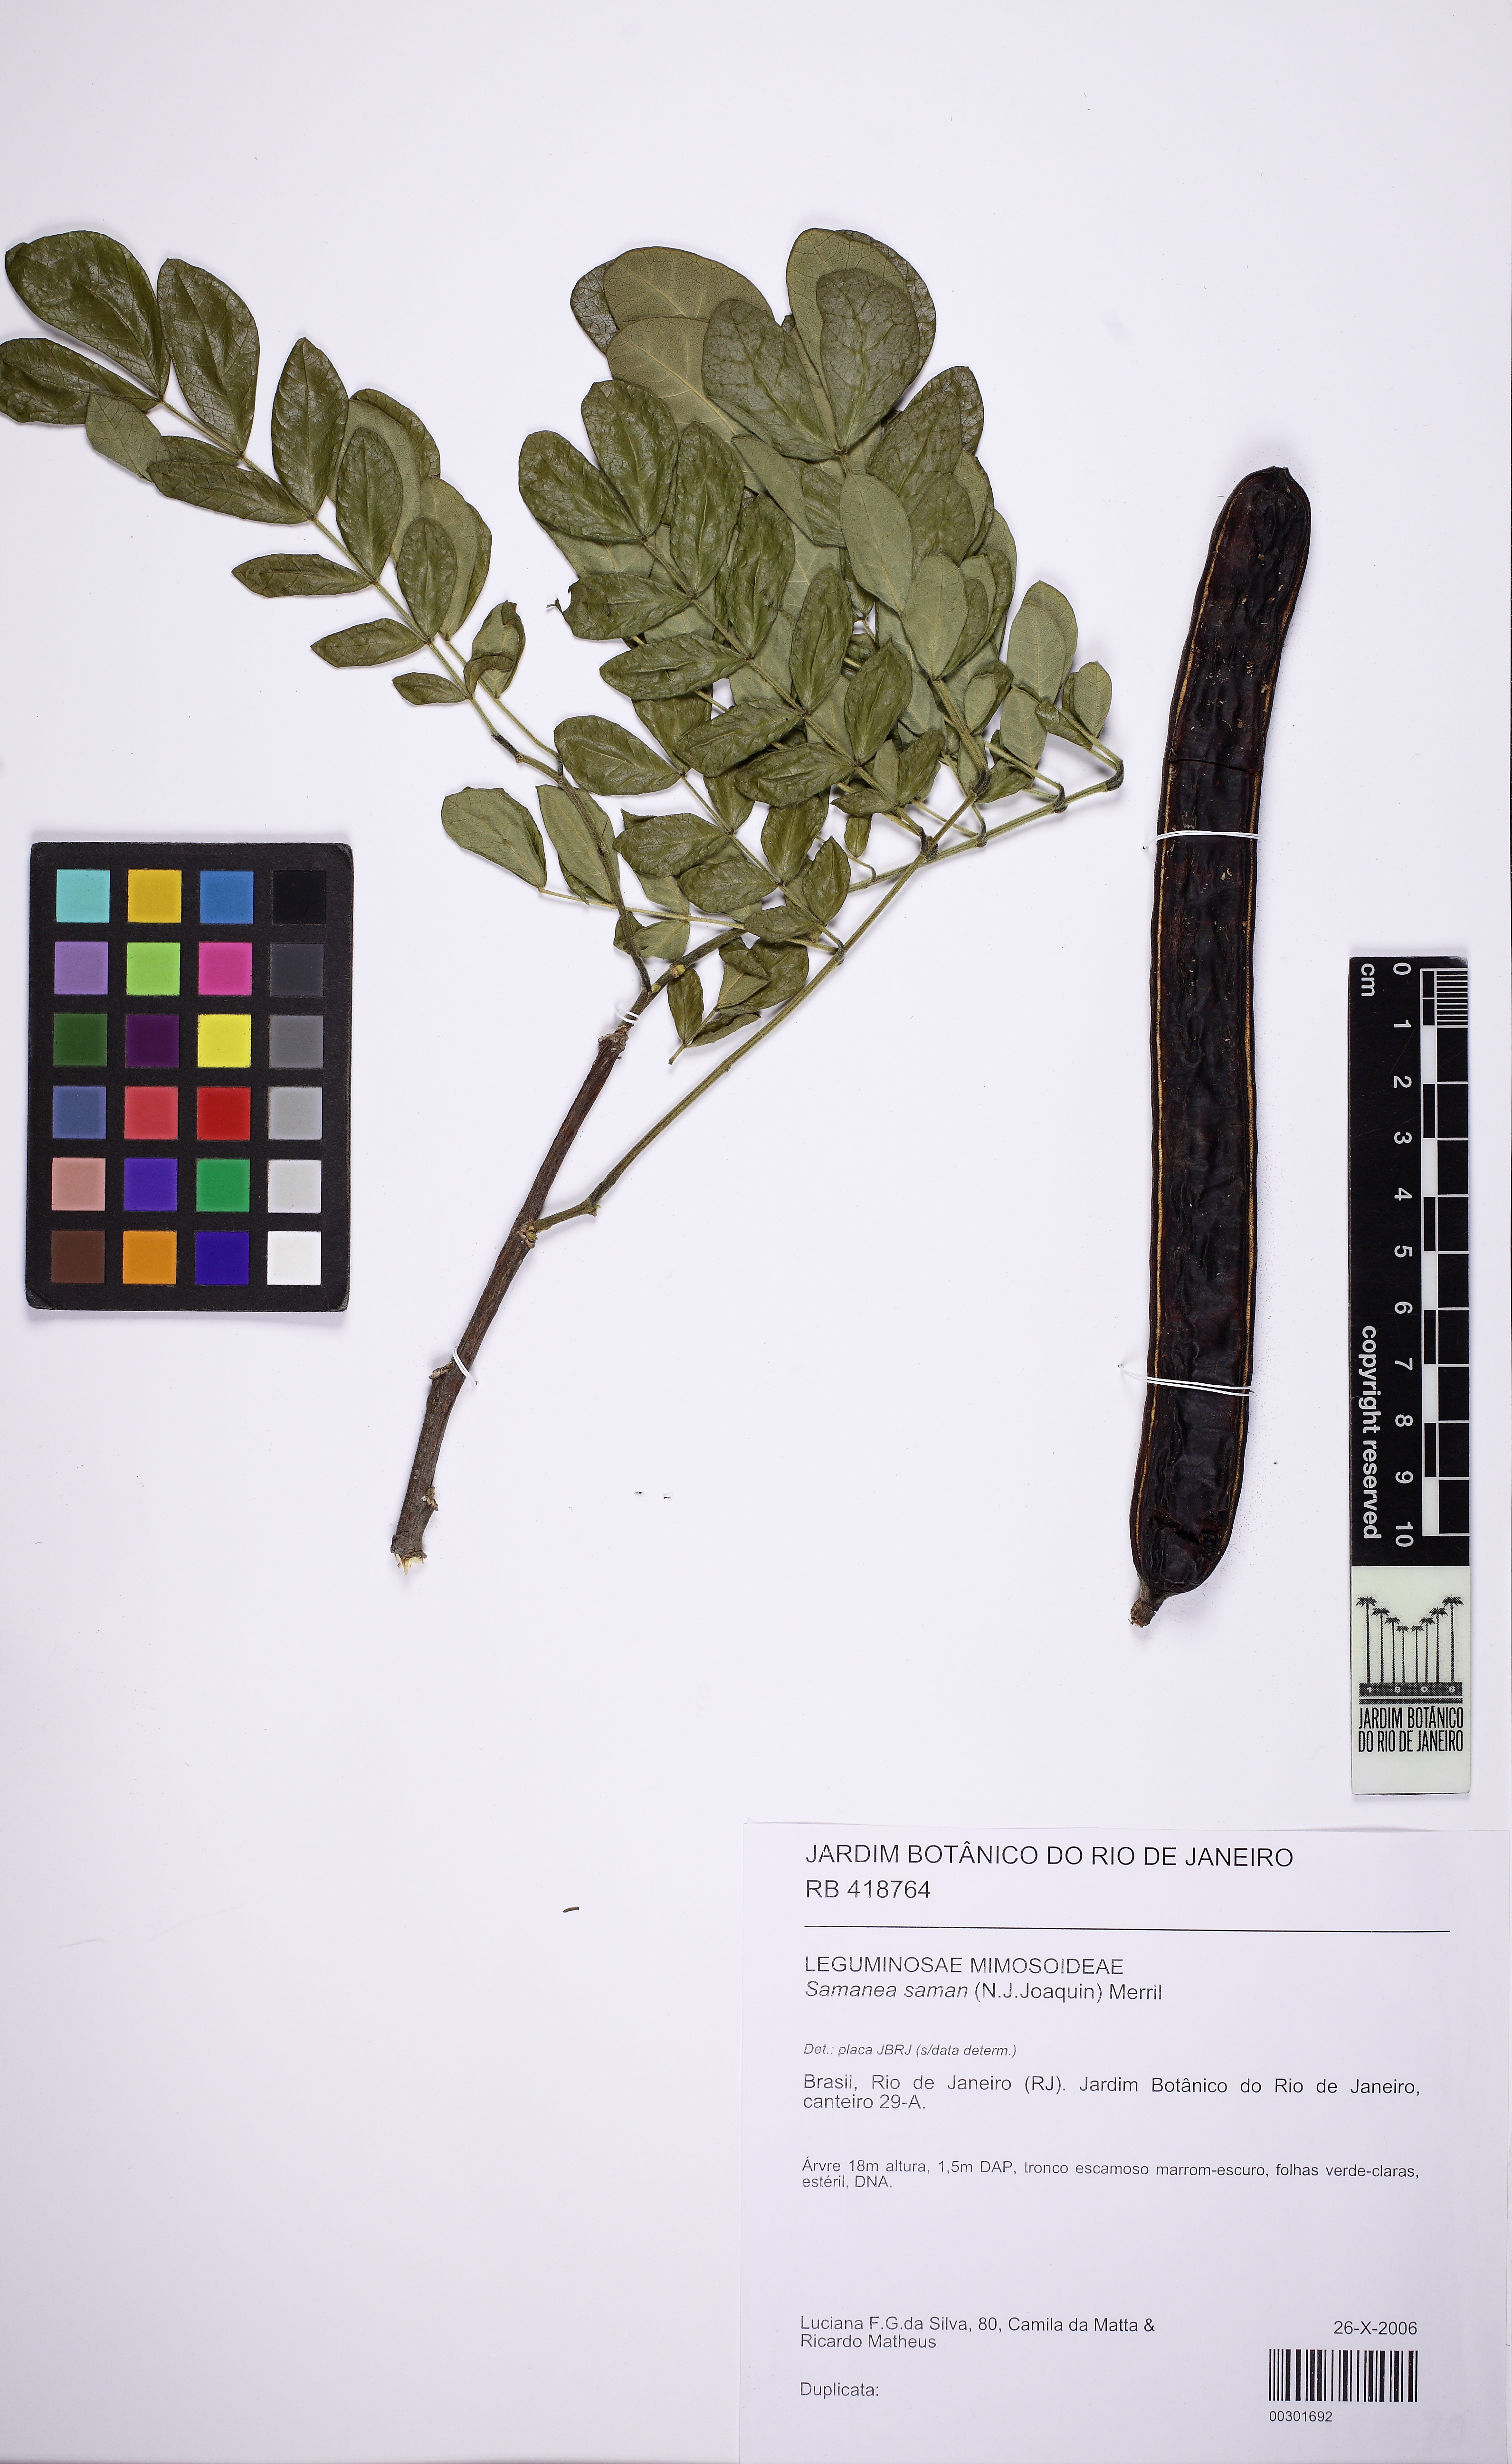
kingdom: Plantae
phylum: Tracheophyta
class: Magnoliopsida
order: Fabales
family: Fabaceae
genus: Samanea
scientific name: Samanea saman
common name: Raintree
